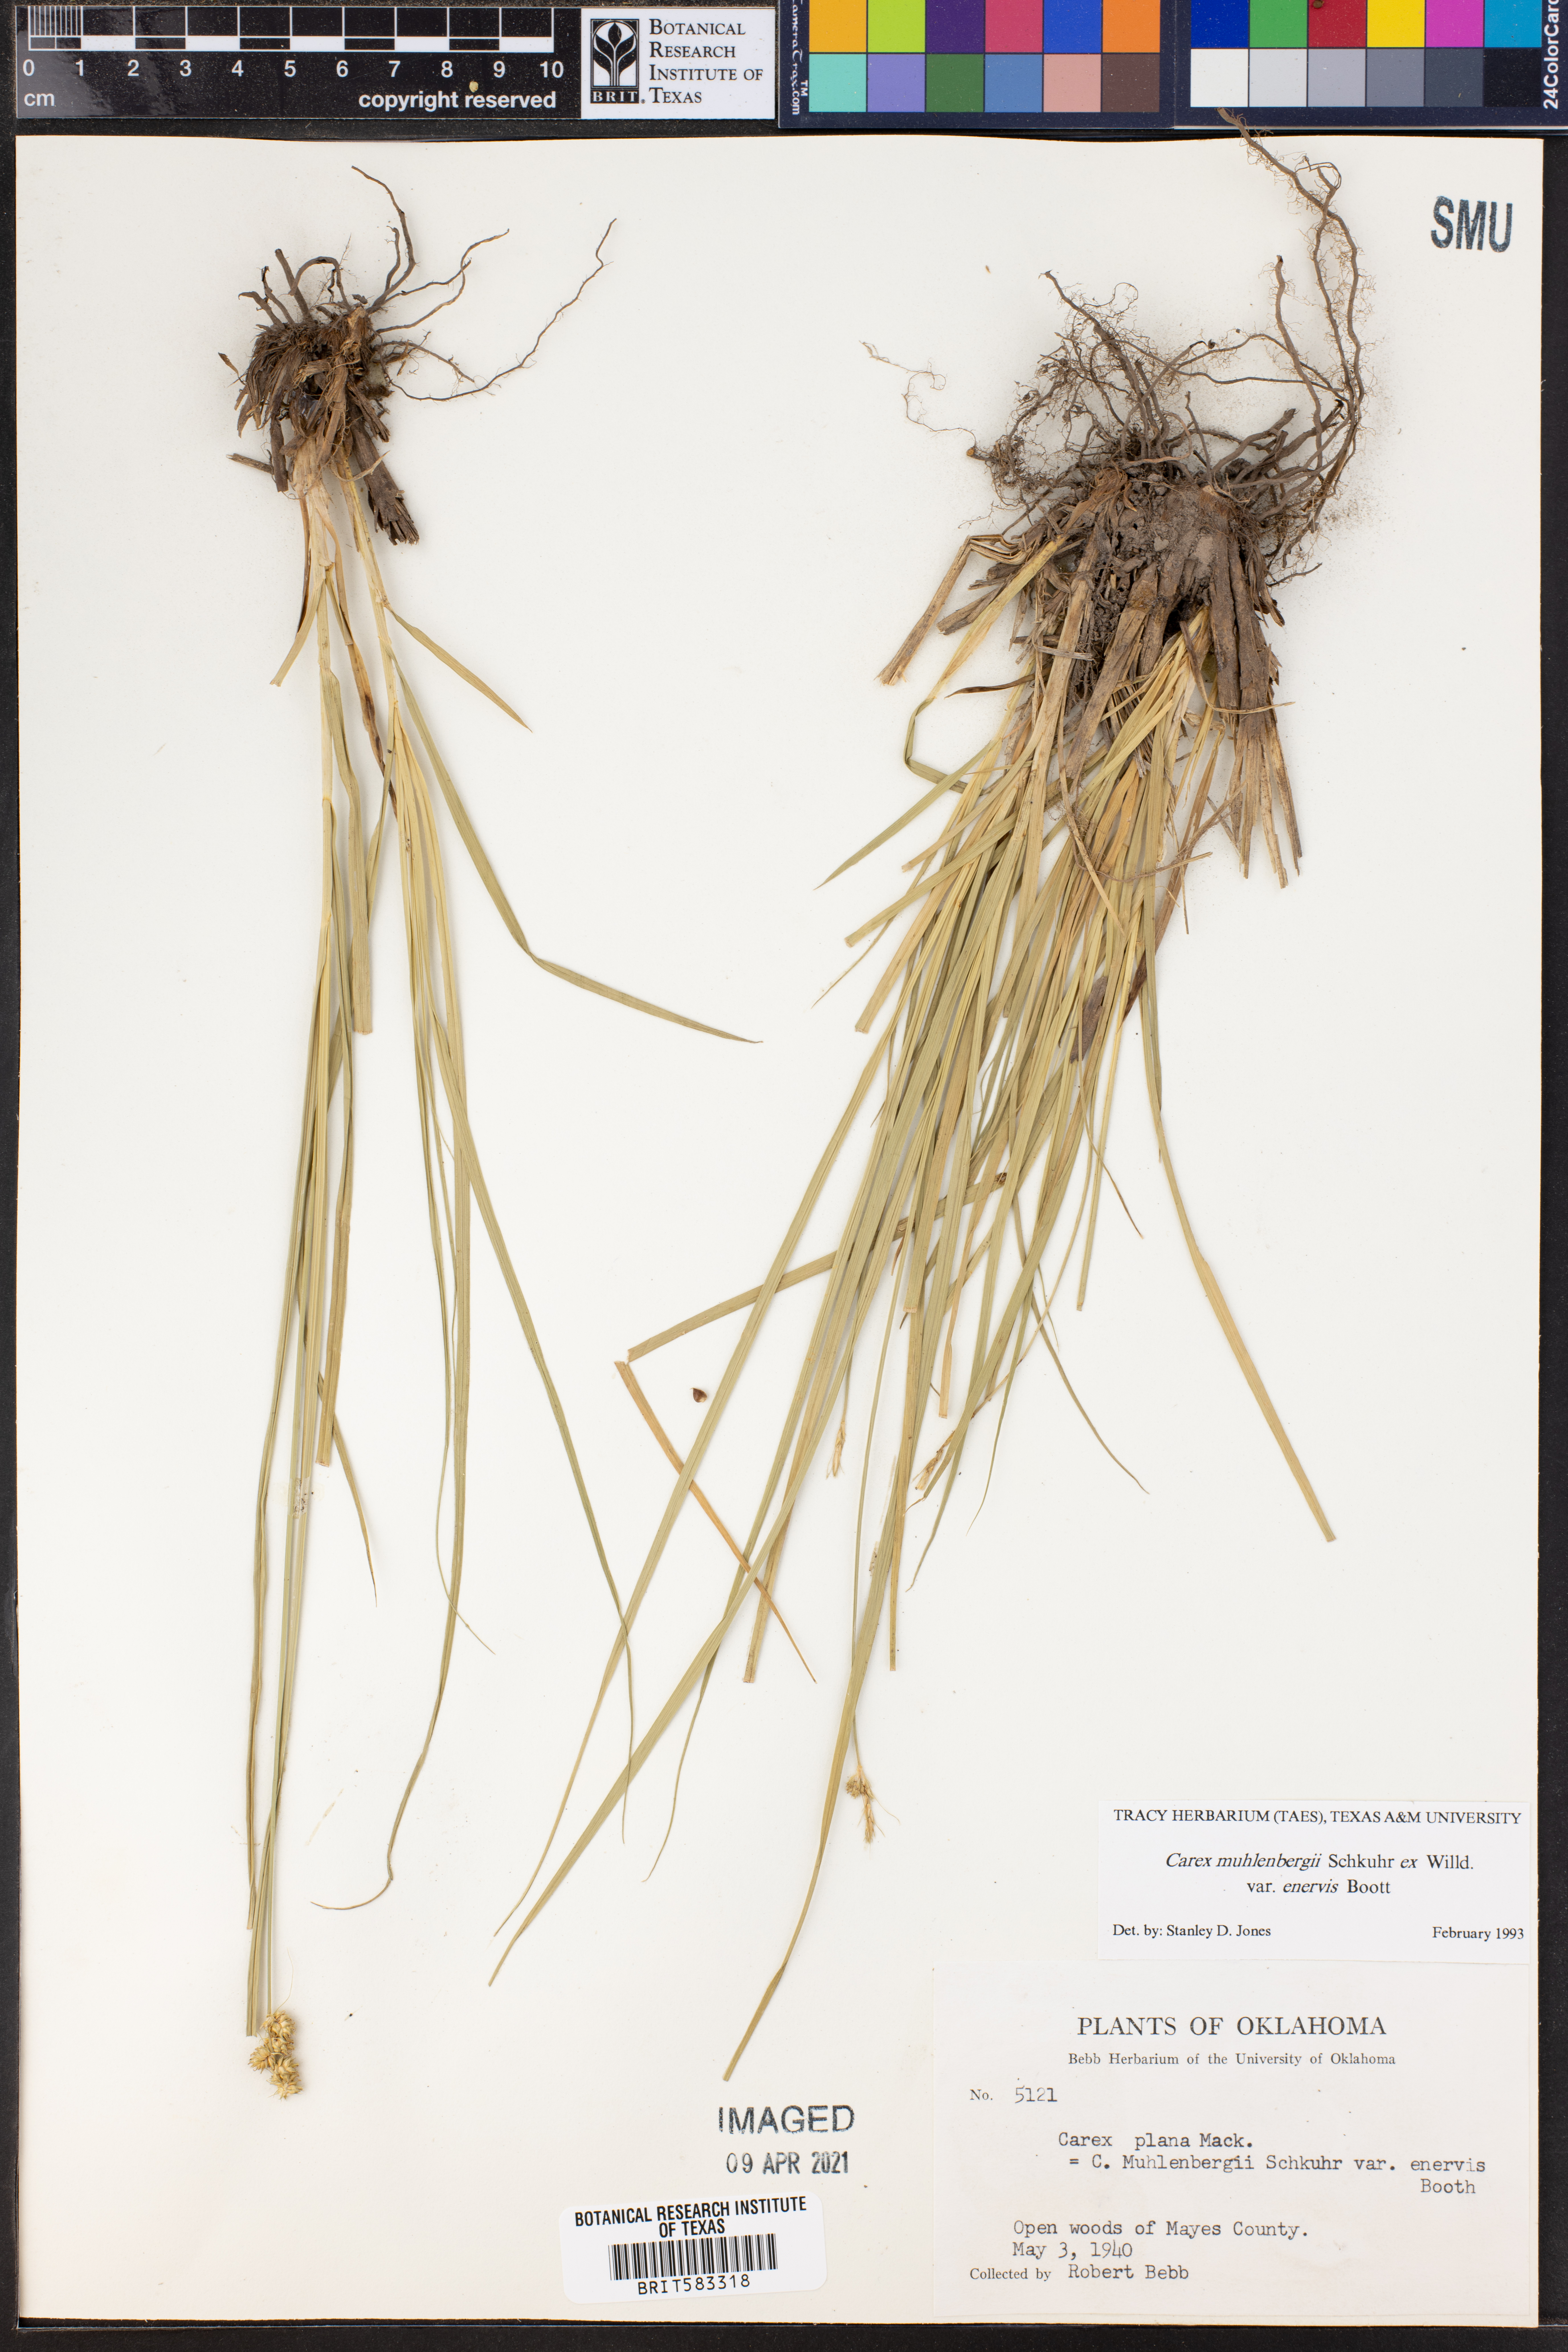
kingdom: Plantae
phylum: Tracheophyta
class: Liliopsida
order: Poales
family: Cyperaceae
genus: Carex
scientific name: Carex vulpinoidea
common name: American fox-sedge
